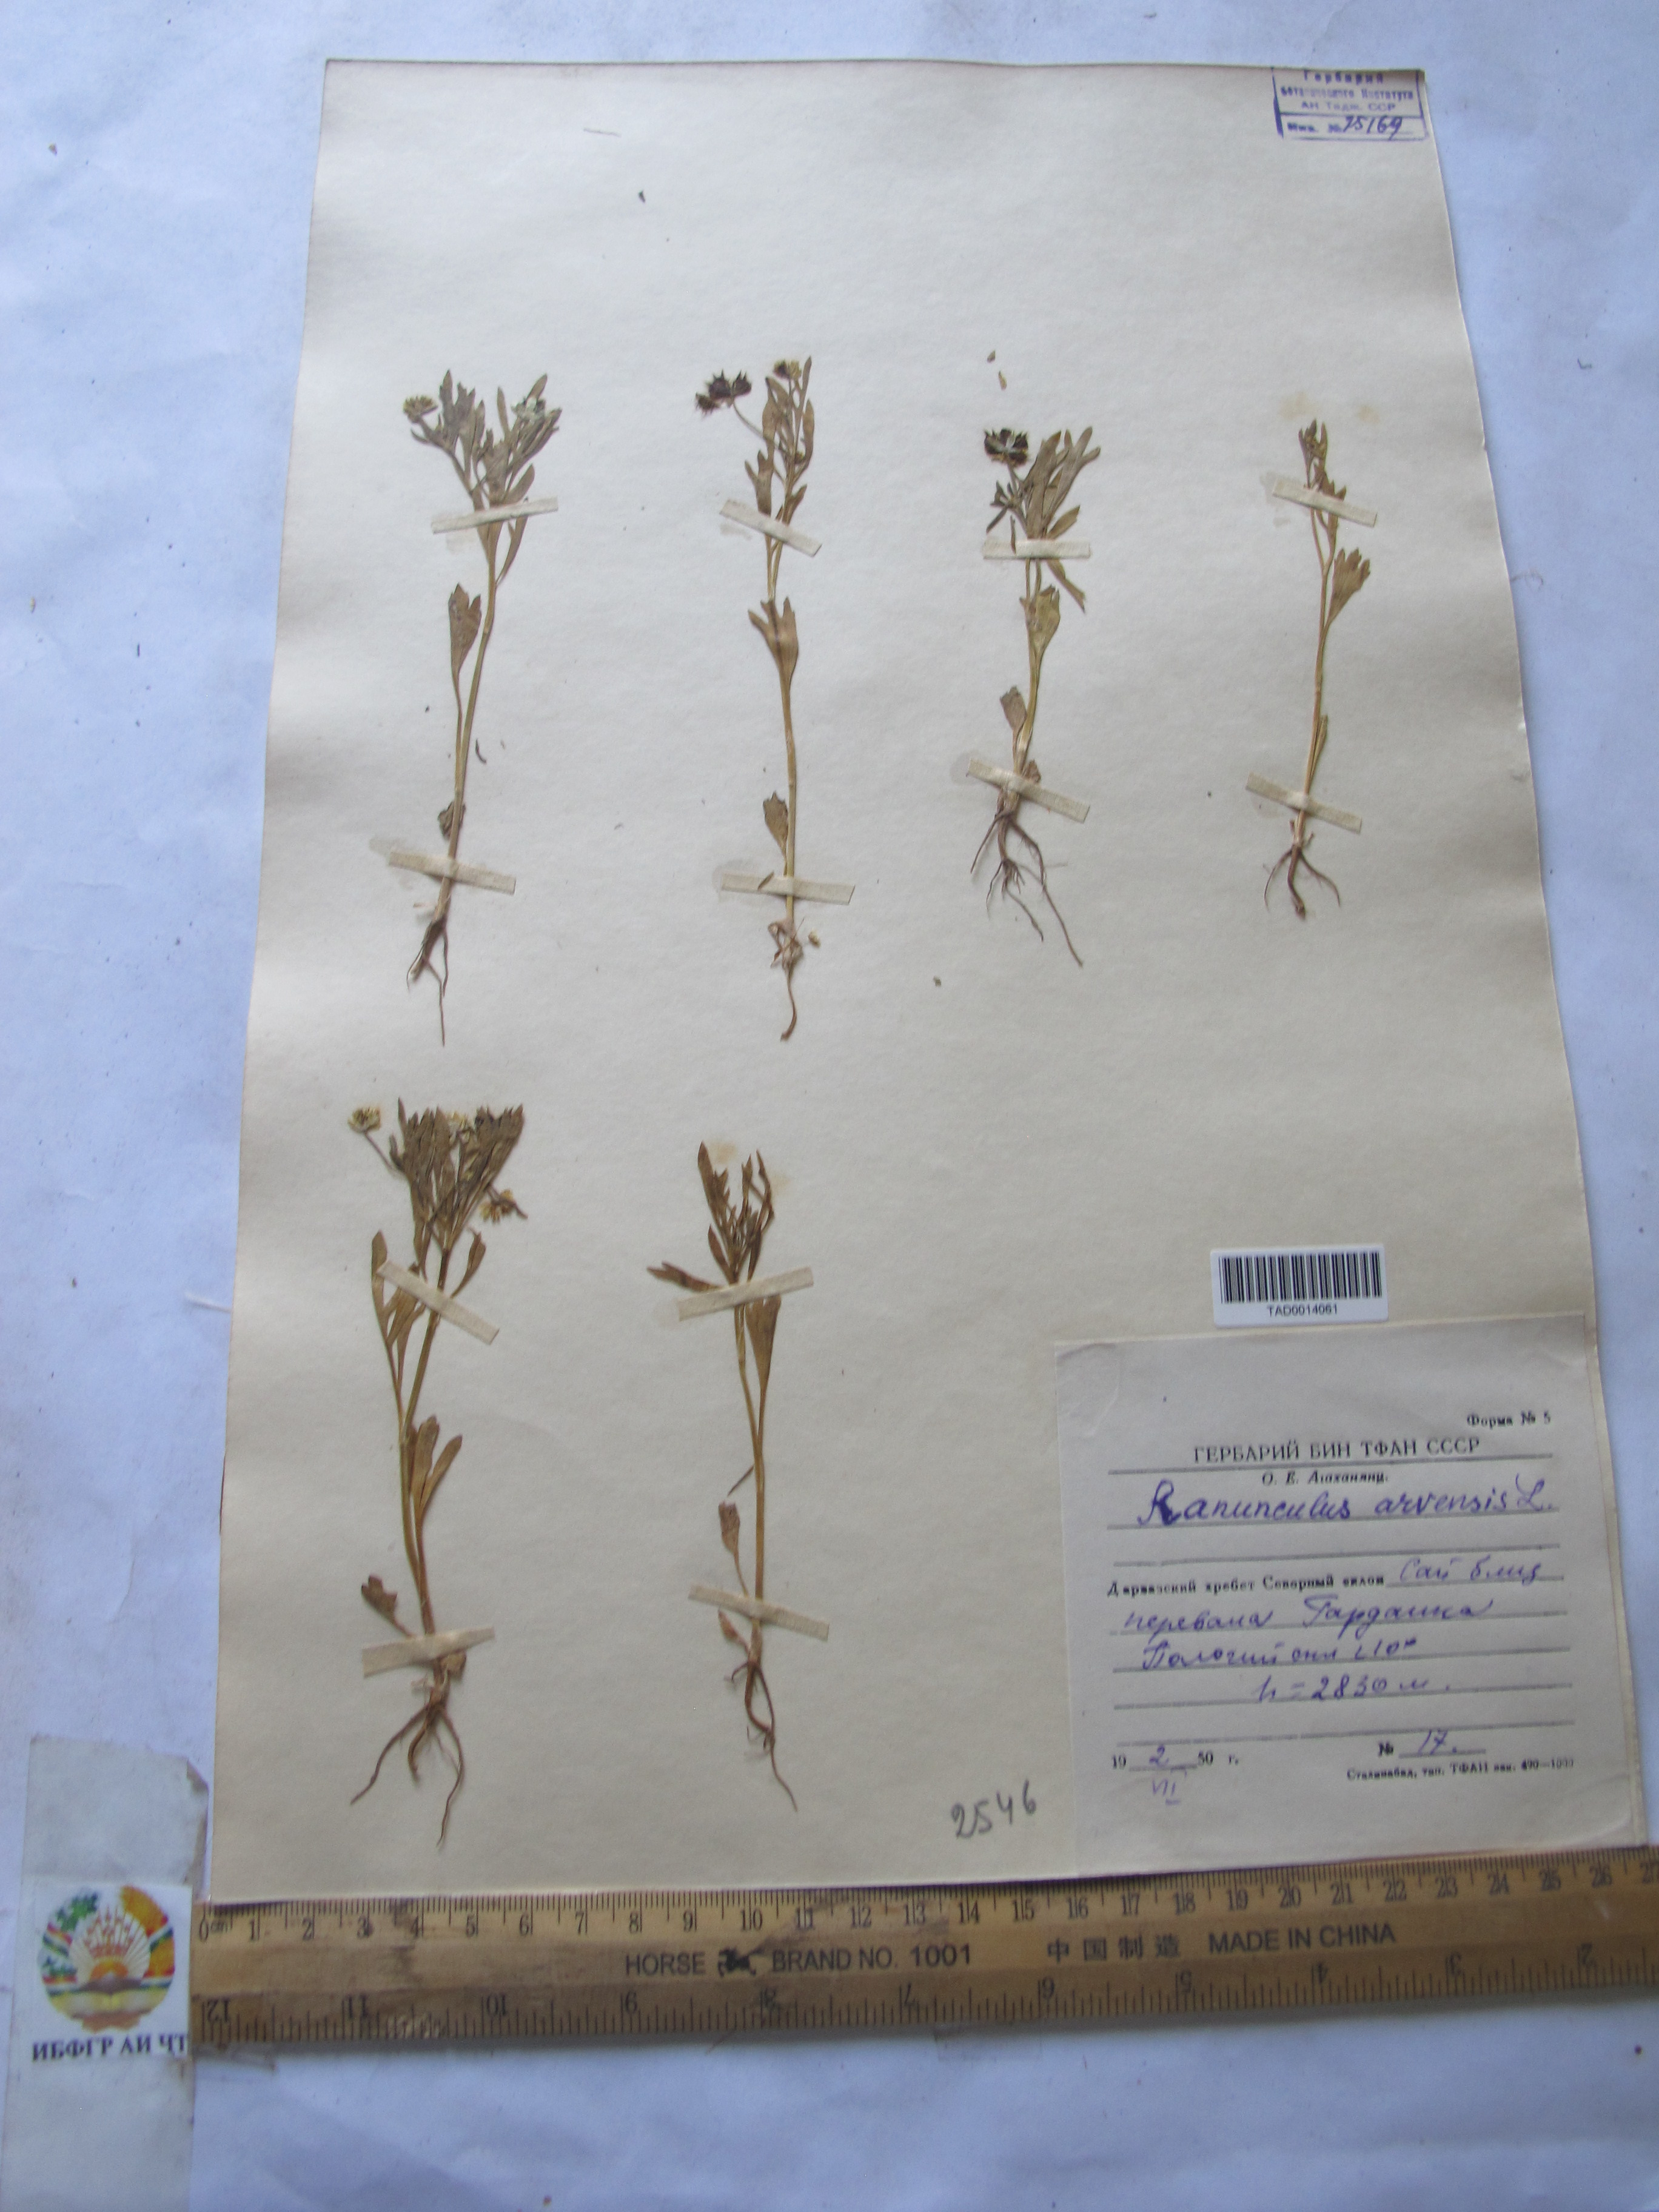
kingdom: Plantae
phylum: Tracheophyta
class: Magnoliopsida
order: Ranunculales
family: Ranunculaceae
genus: Ranunculus
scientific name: Ranunculus arvensis
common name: Corn buttercup
